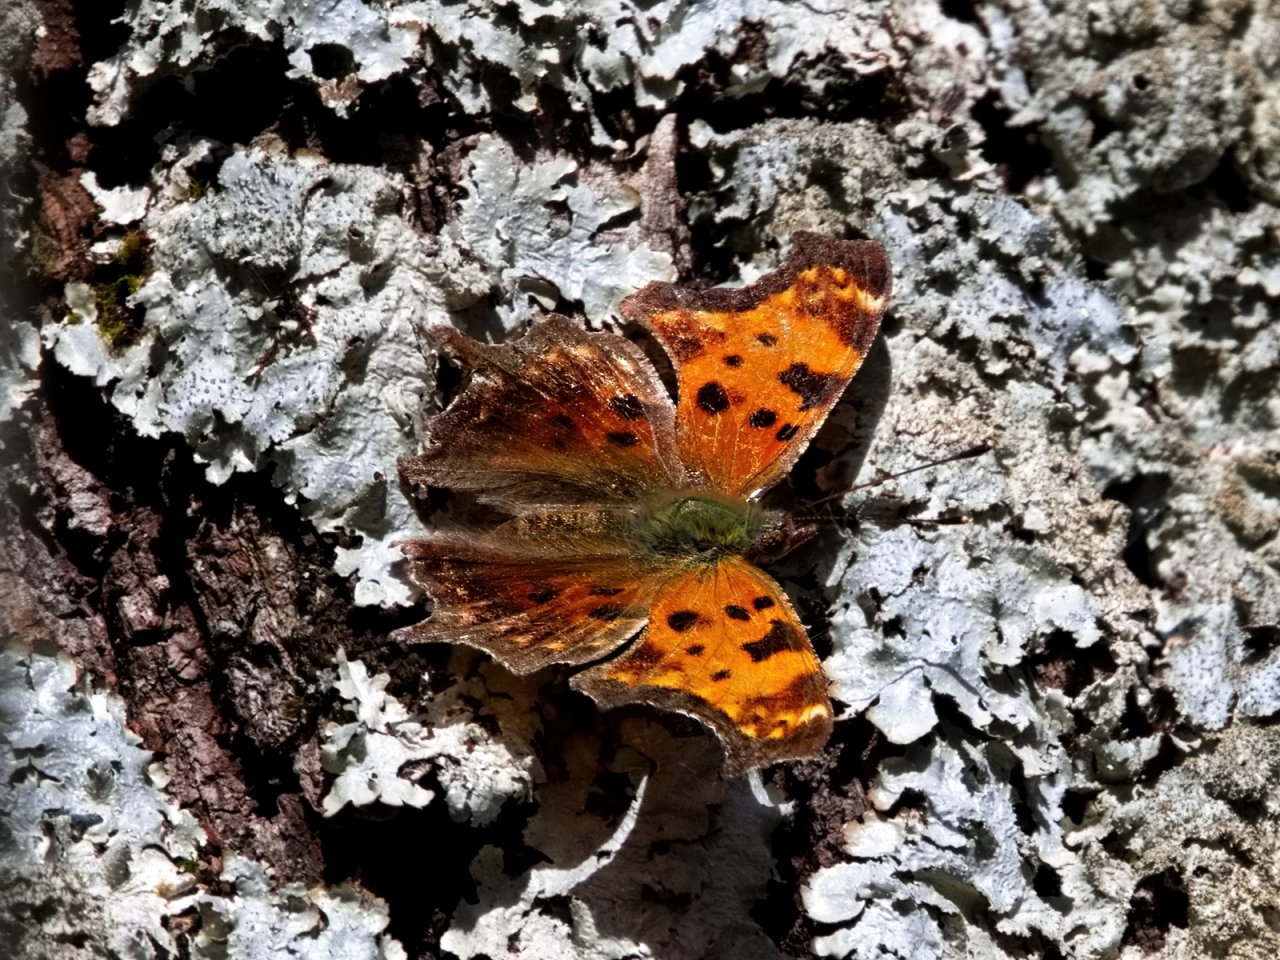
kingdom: Animalia
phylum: Arthropoda
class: Insecta
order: Lepidoptera
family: Nymphalidae
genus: Polygonia
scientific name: Polygonia comma
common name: Eastern Comma
